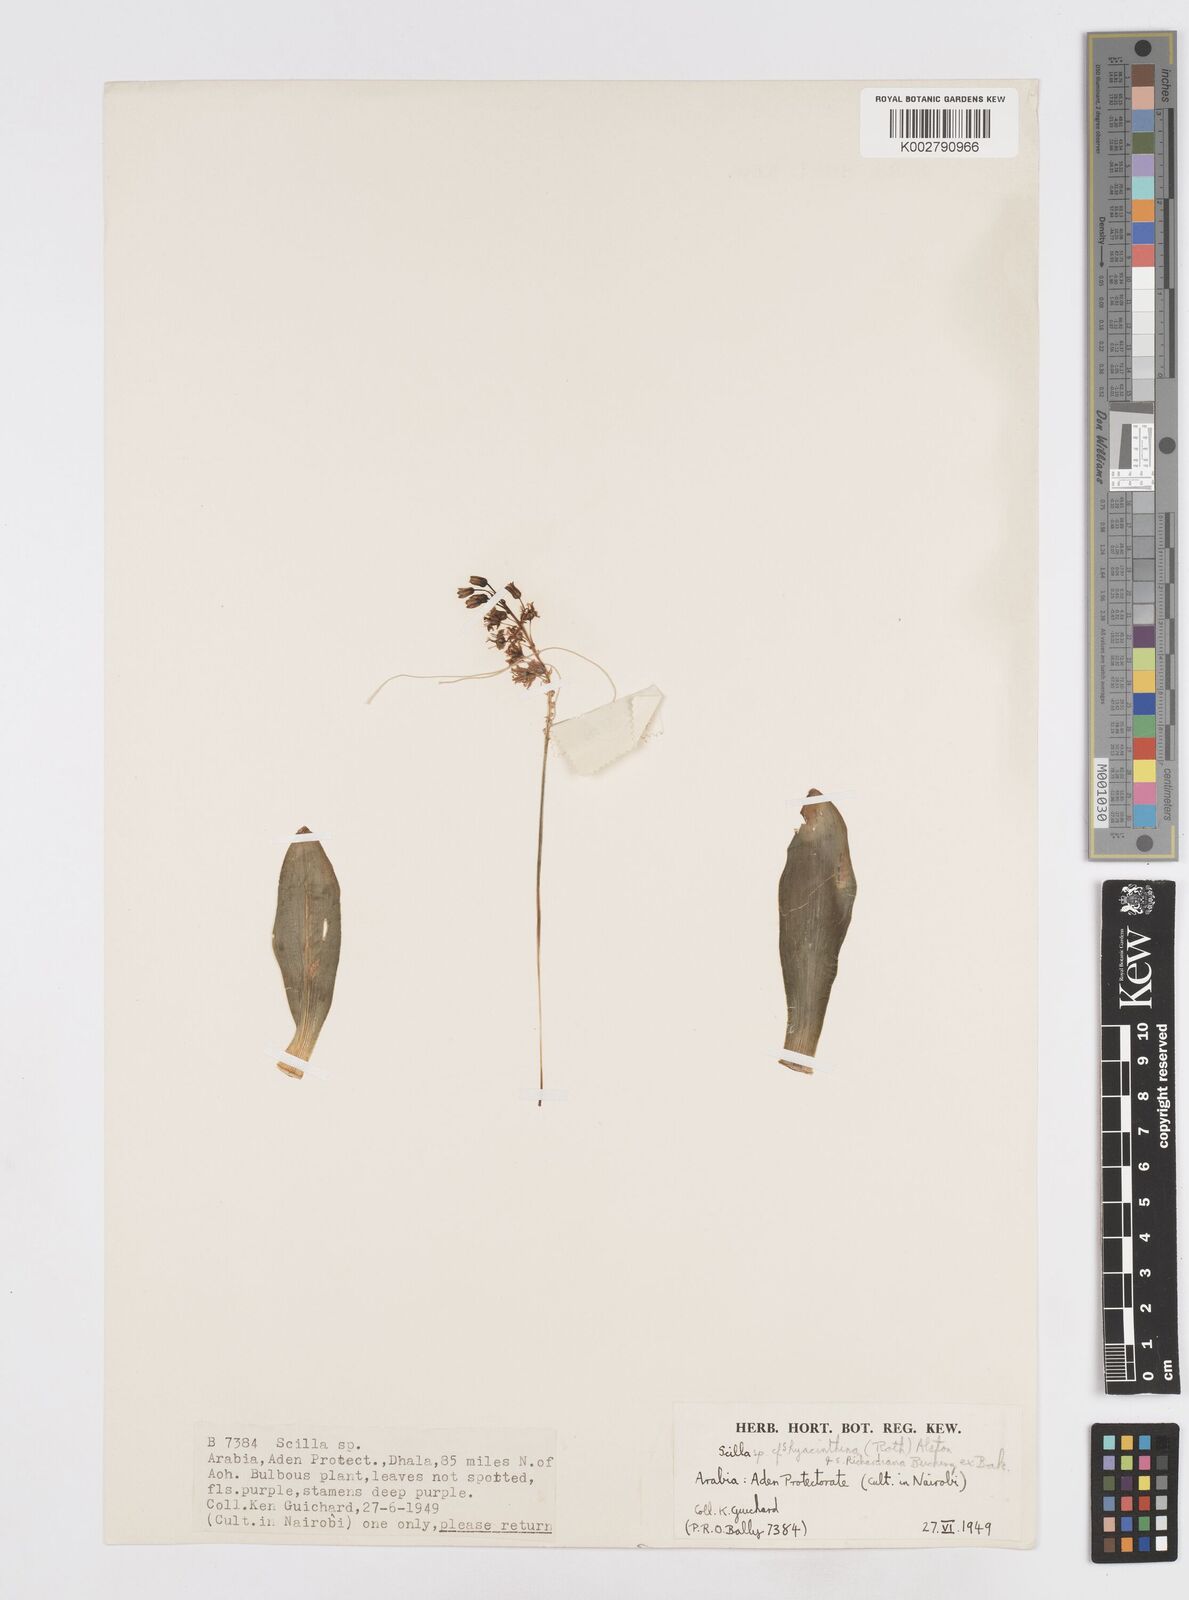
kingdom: Plantae
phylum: Tracheophyta
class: Liliopsida
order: Asparagales
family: Asparagaceae
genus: Ledebouria
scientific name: Ledebouria revoluta
